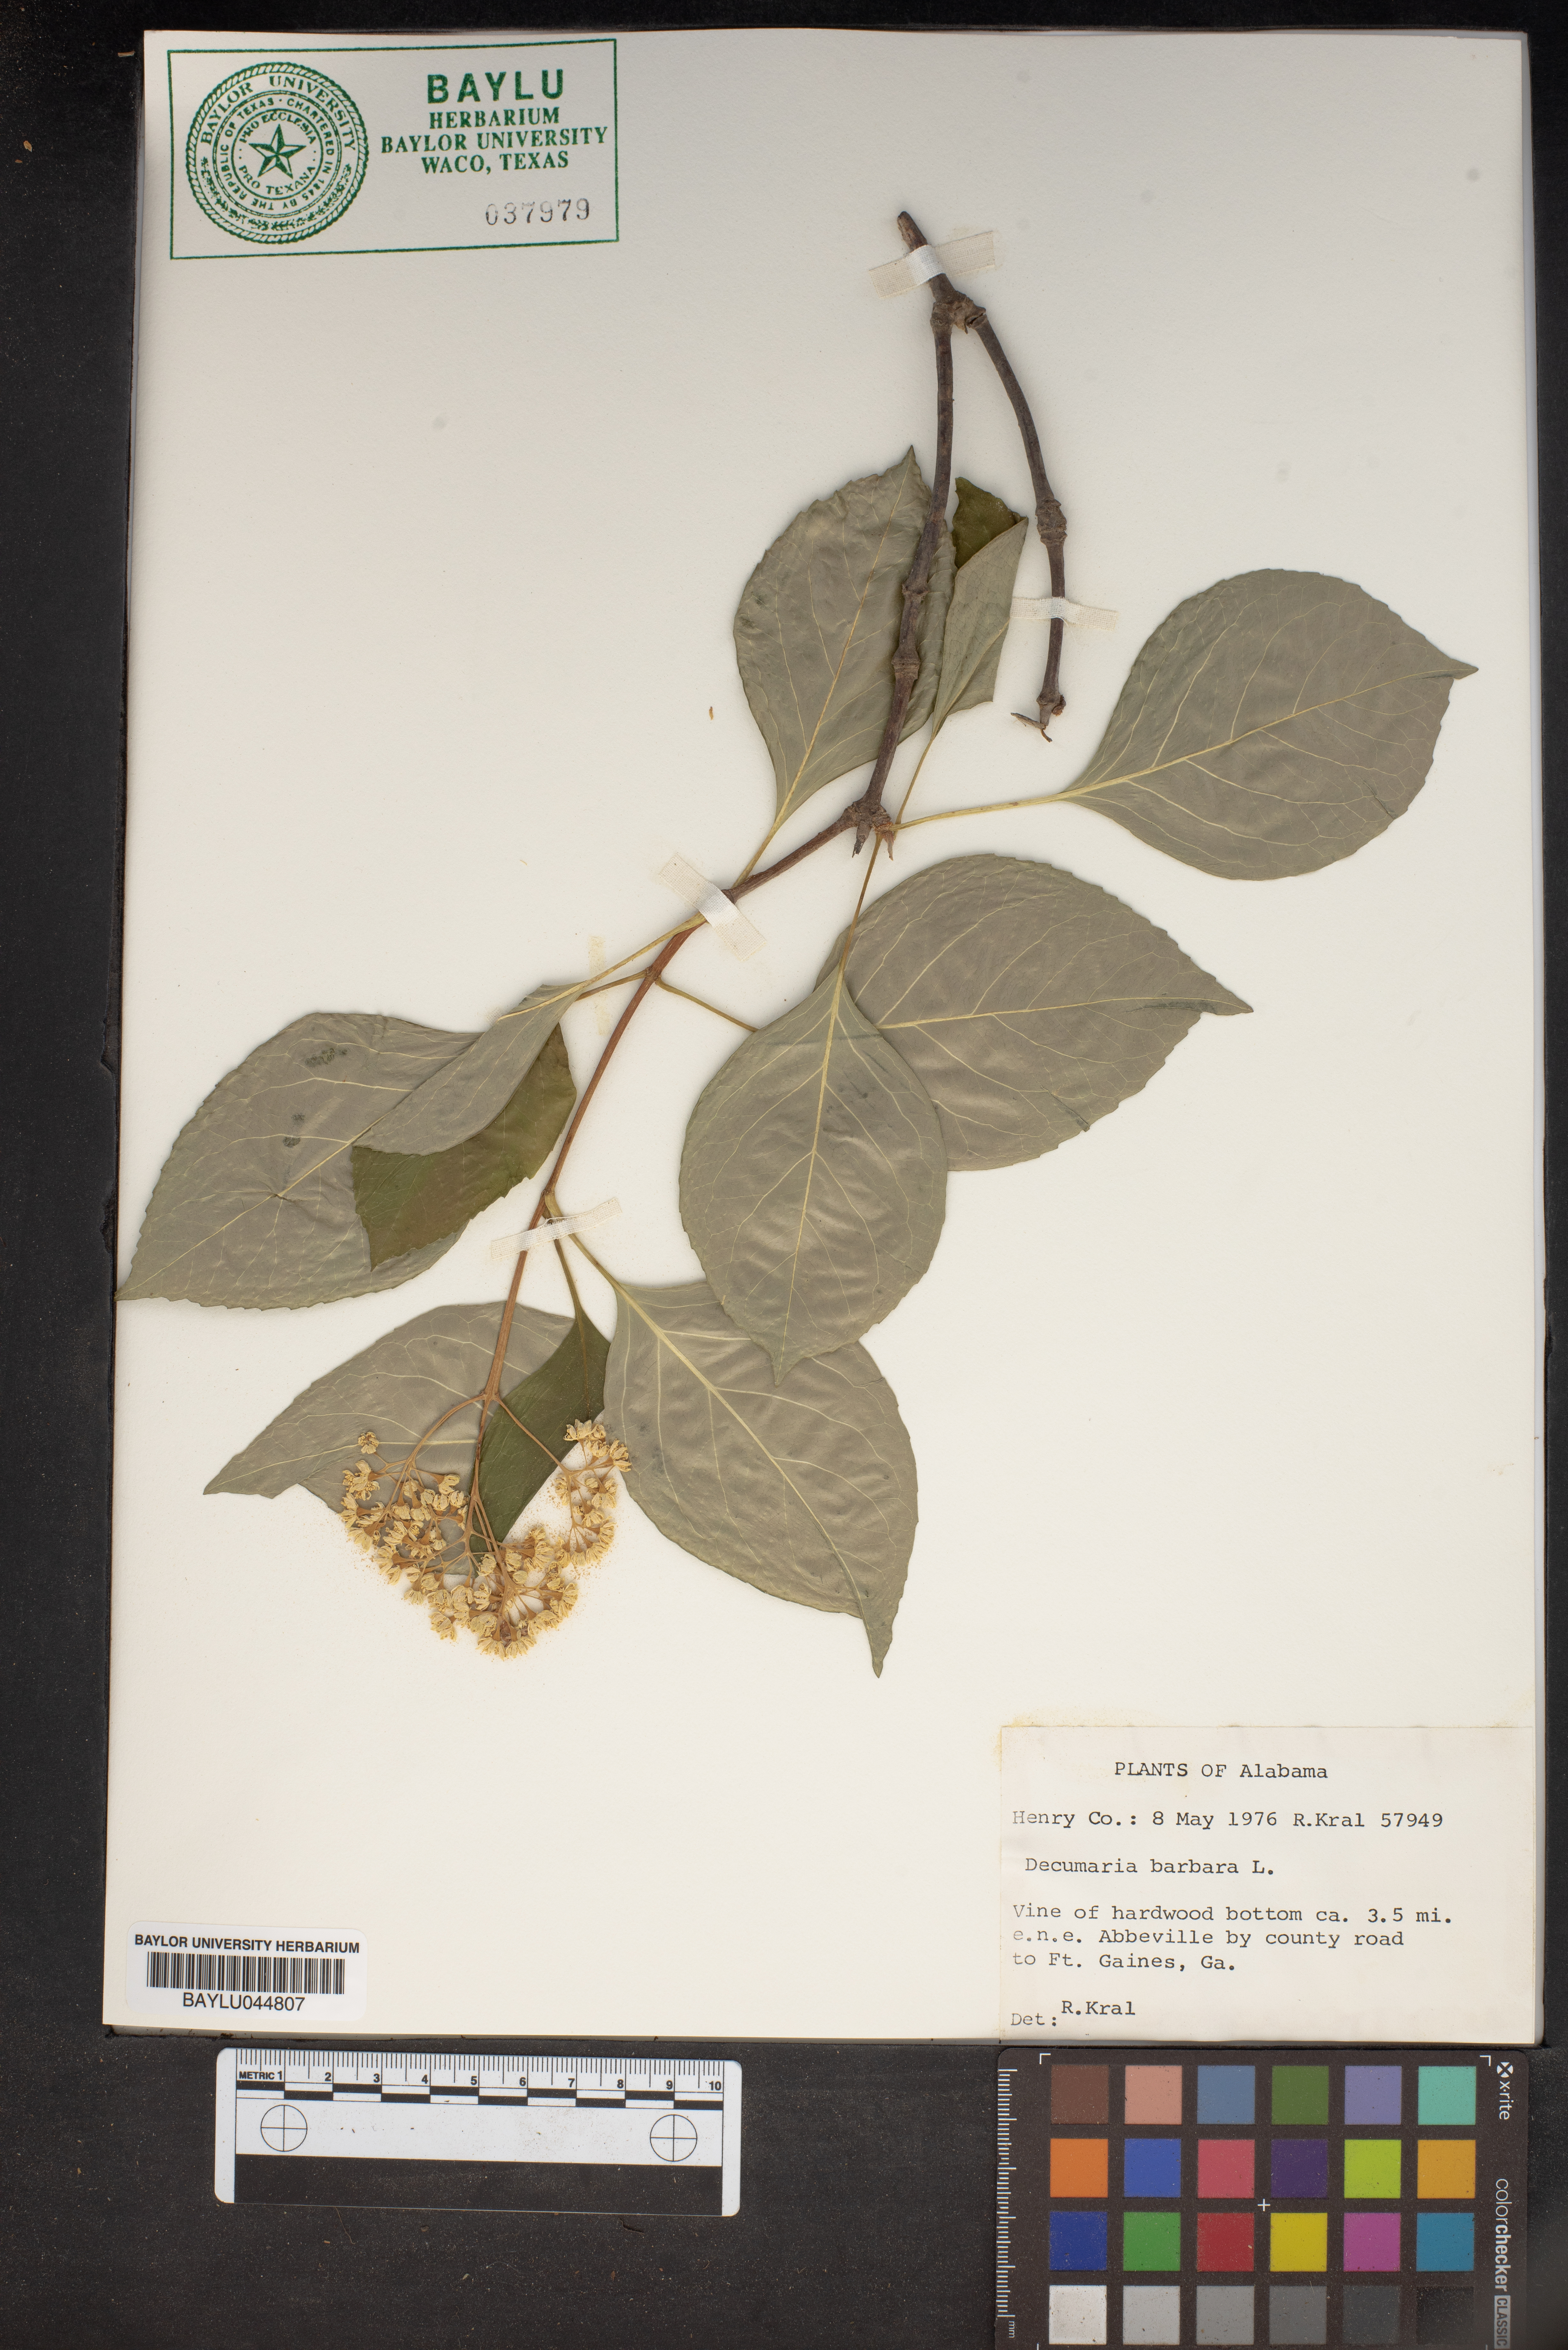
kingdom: Plantae
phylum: Tracheophyta
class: Magnoliopsida
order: Cornales
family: Hydrangeaceae
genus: Hydrangea
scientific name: Hydrangea barbara
